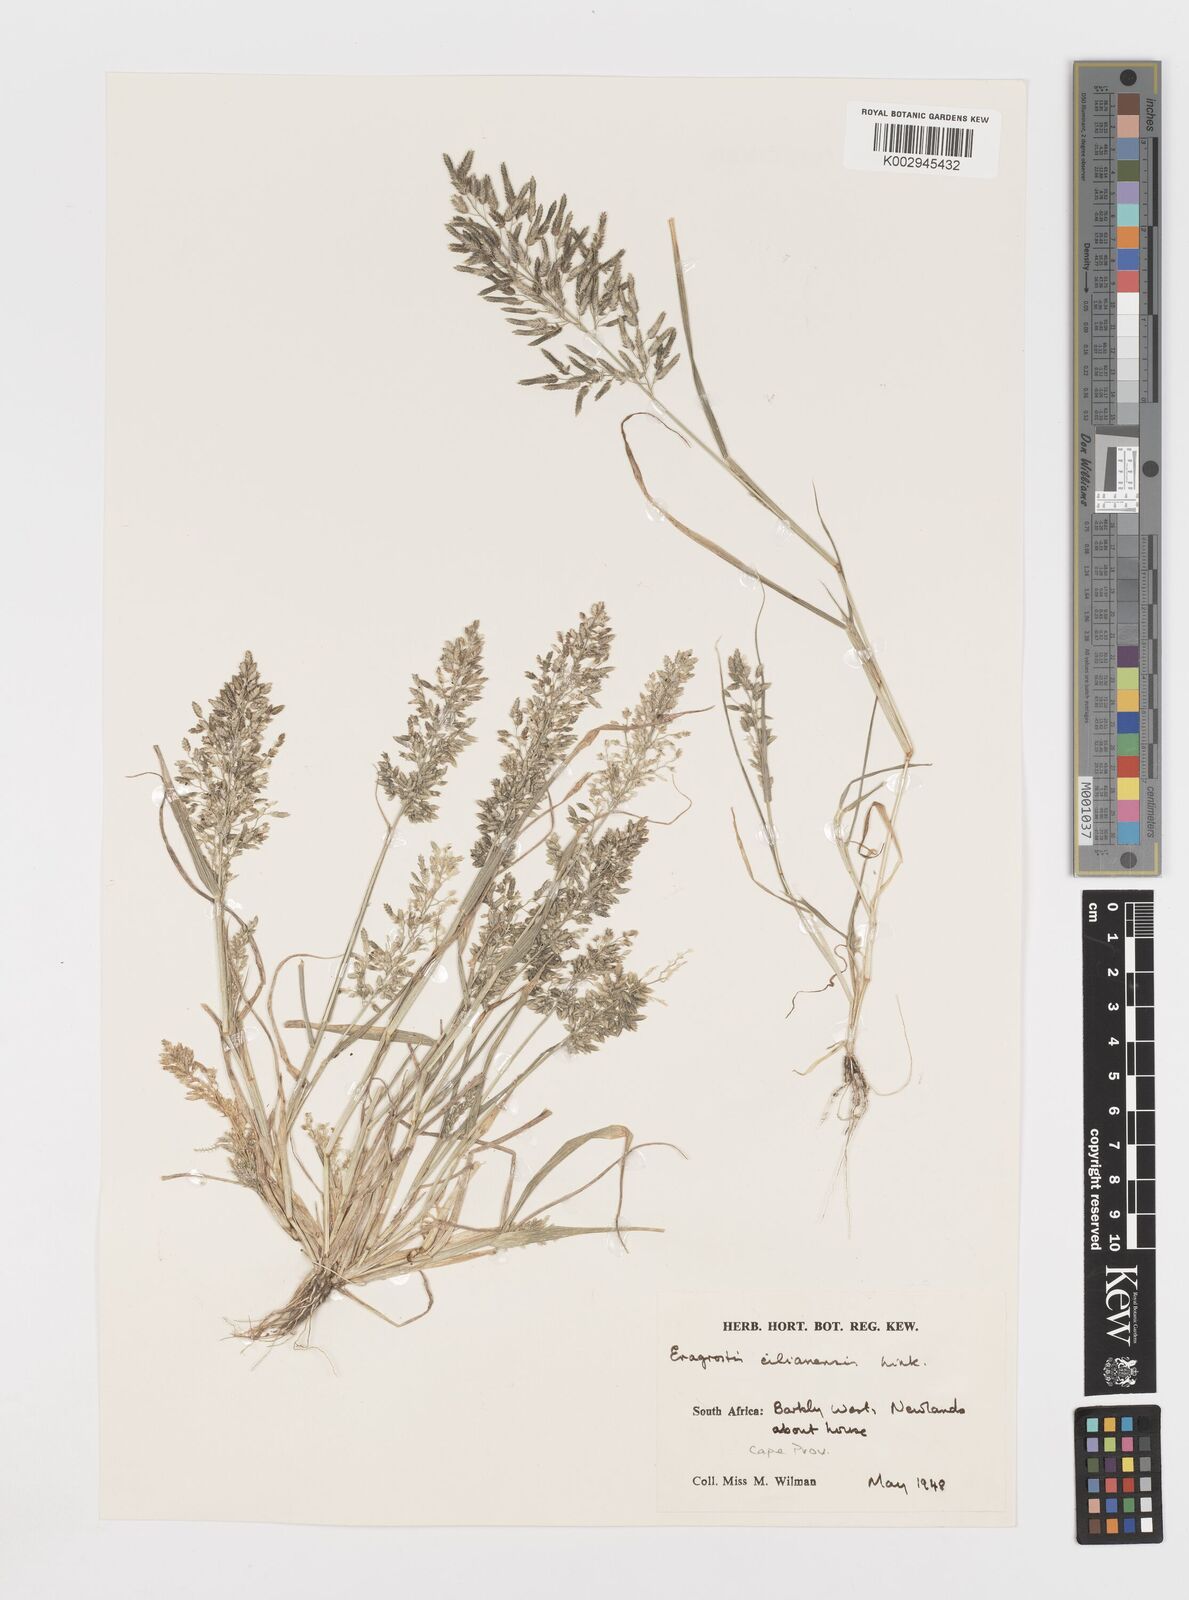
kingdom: Plantae
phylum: Tracheophyta
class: Liliopsida
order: Poales
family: Poaceae
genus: Eragrostis
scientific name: Eragrostis cilianensis
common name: Stinkgrass
